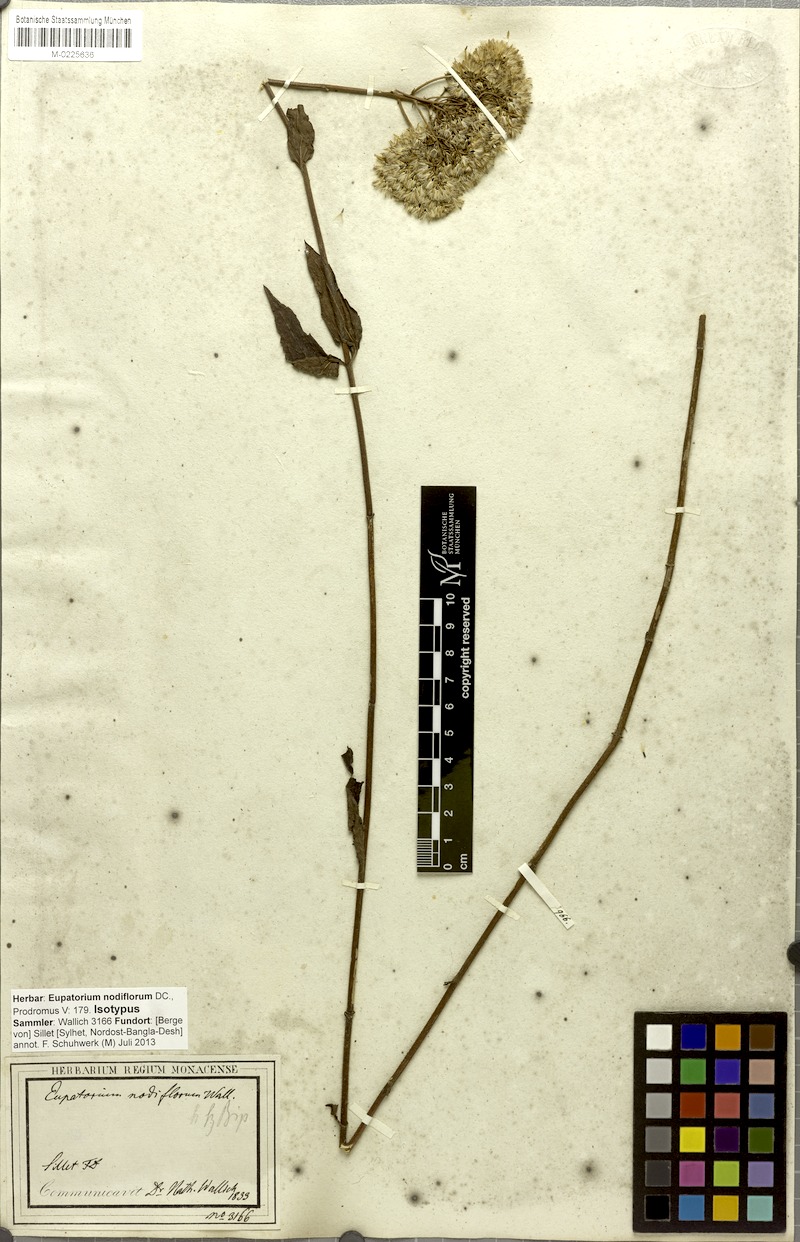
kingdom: Plantae
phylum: Tracheophyta
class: Magnoliopsida
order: Asterales
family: Asteraceae
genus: Eupatorium
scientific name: Eupatorium nodiflorum
